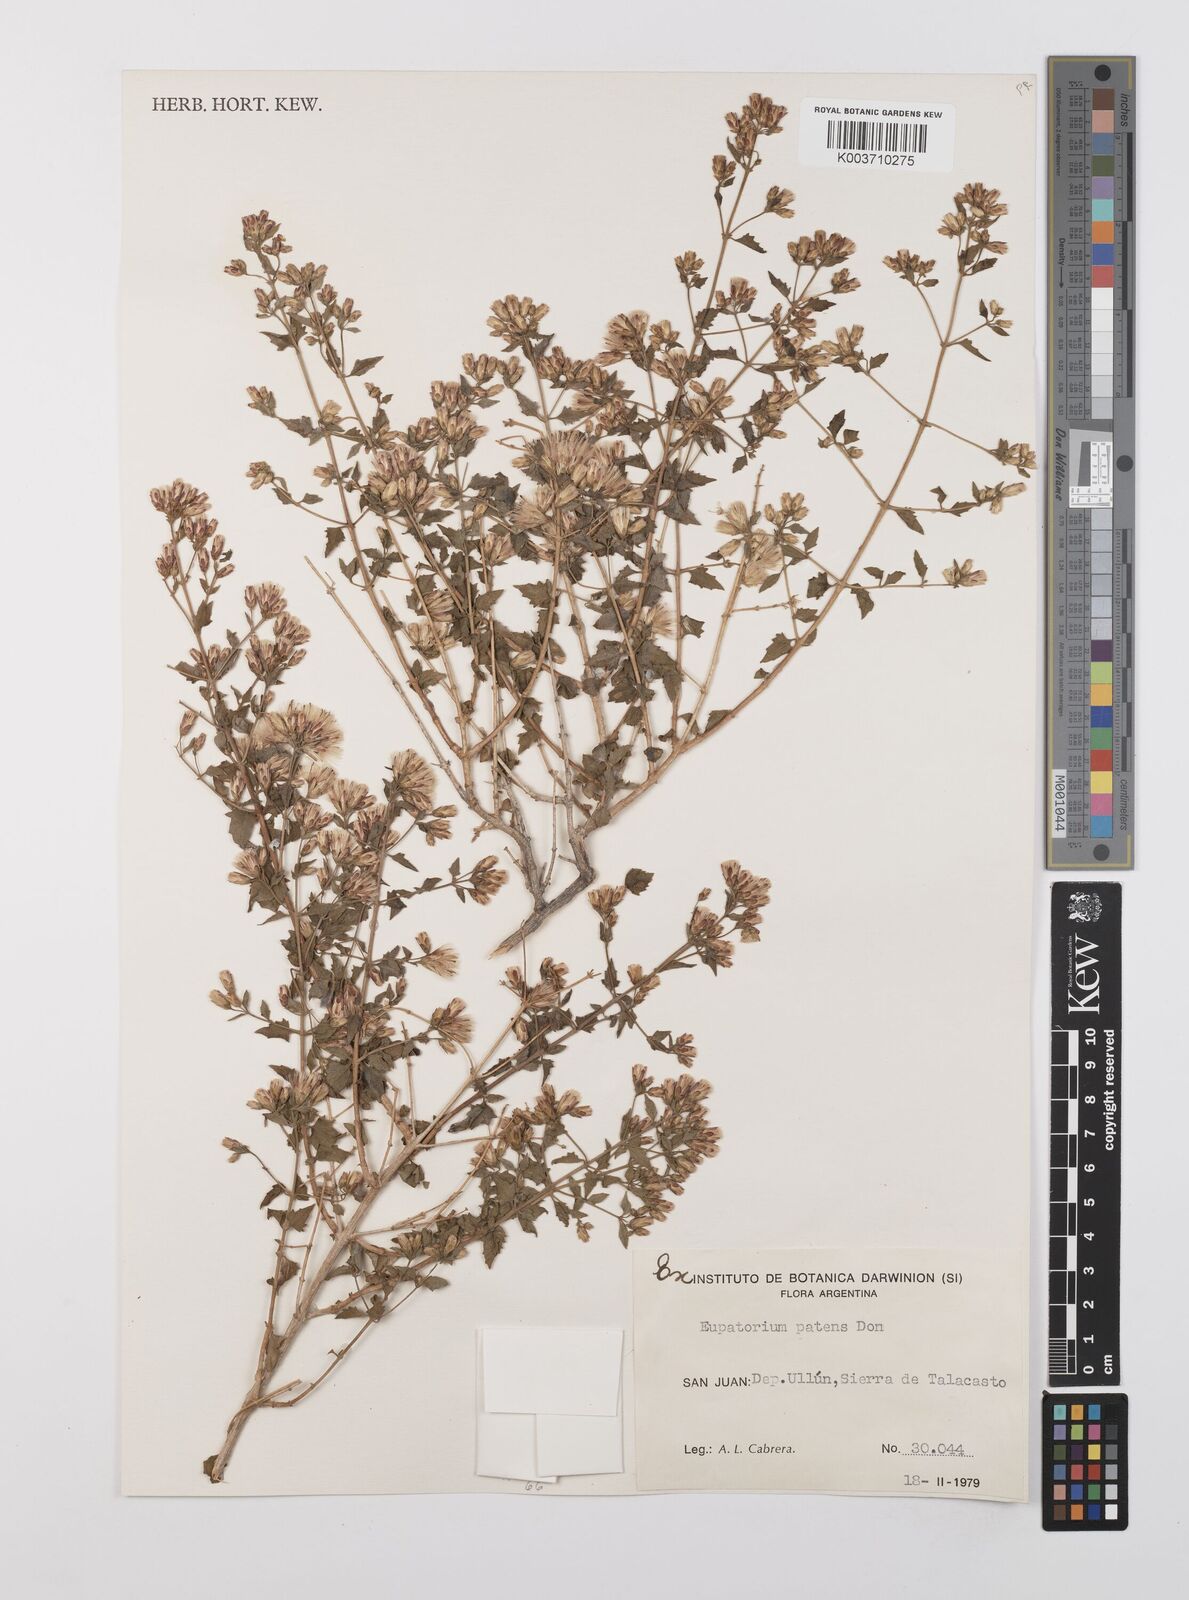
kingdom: Plantae
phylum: Tracheophyta
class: Magnoliopsida
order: Asterales
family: Asteraceae
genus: Austrobrickellia
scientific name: Austrobrickellia patens
